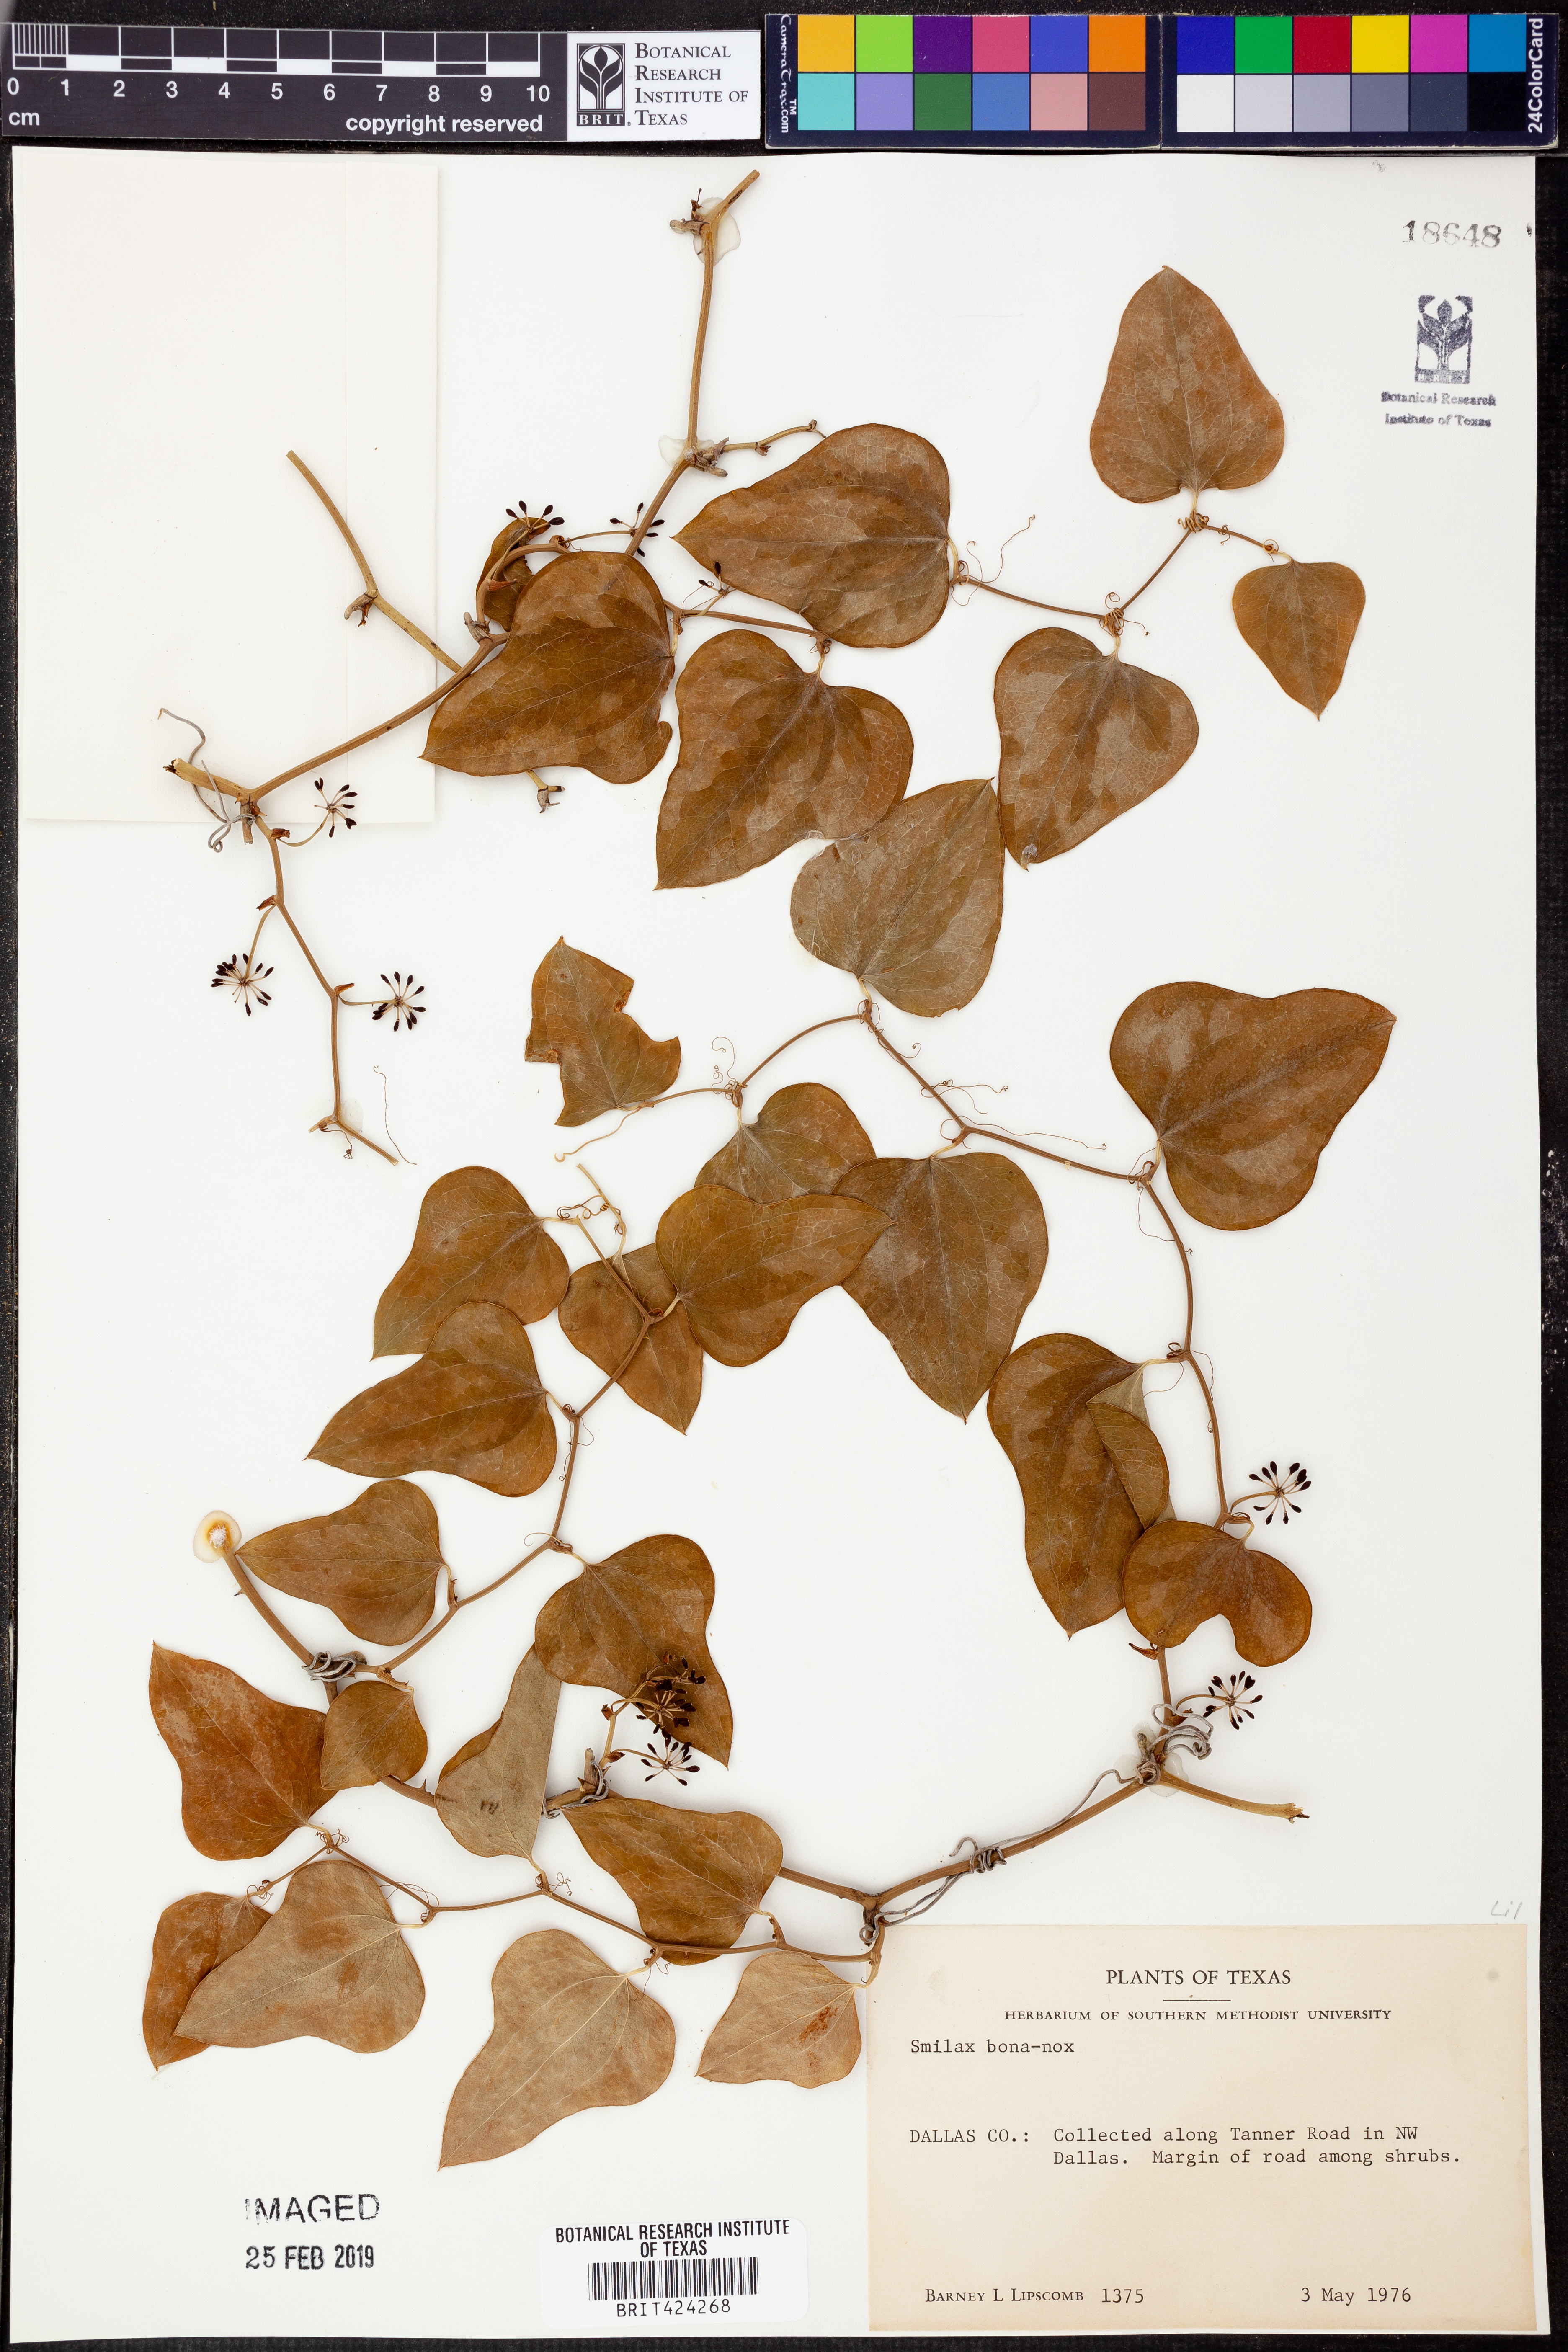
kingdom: Plantae
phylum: Tracheophyta
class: Liliopsida
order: Liliales
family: Smilacaceae
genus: Smilax
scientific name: Smilax bona-nox
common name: Catbrier
